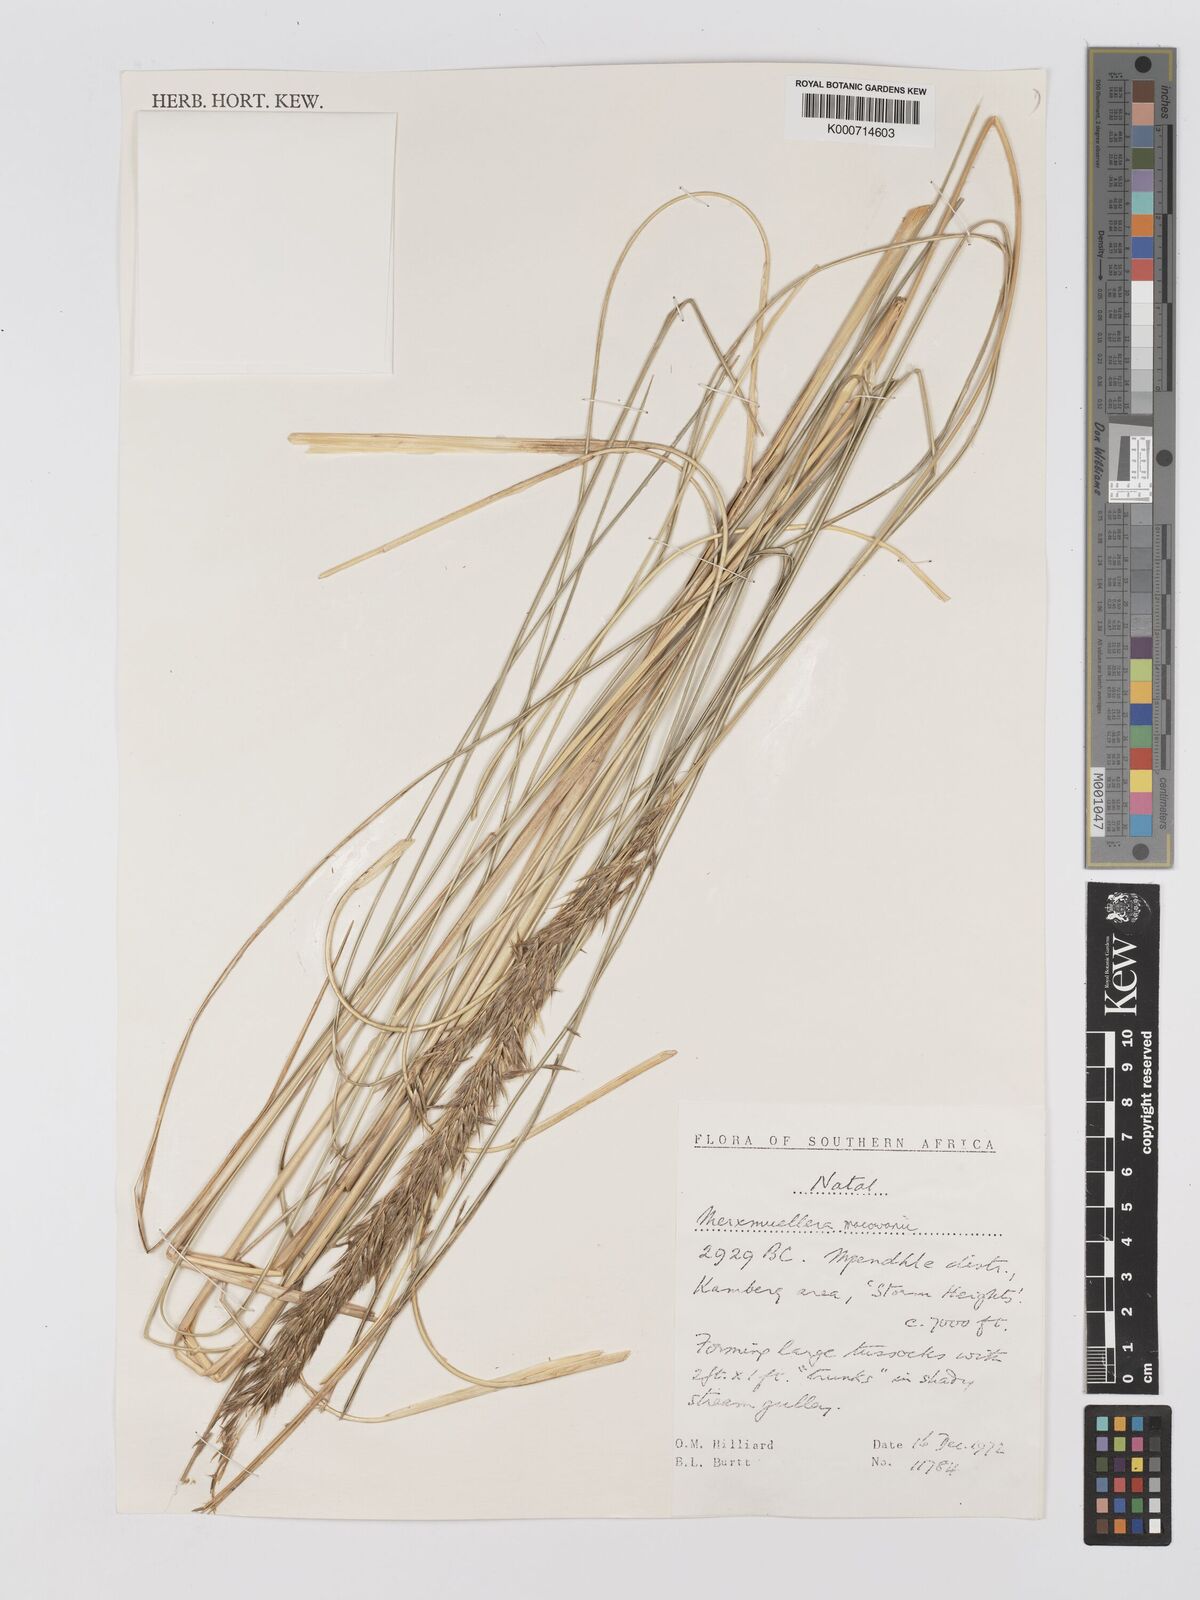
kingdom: Plantae
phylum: Tracheophyta
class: Liliopsida
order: Poales
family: Poaceae
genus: Rytidosperma
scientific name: Rytidosperma
